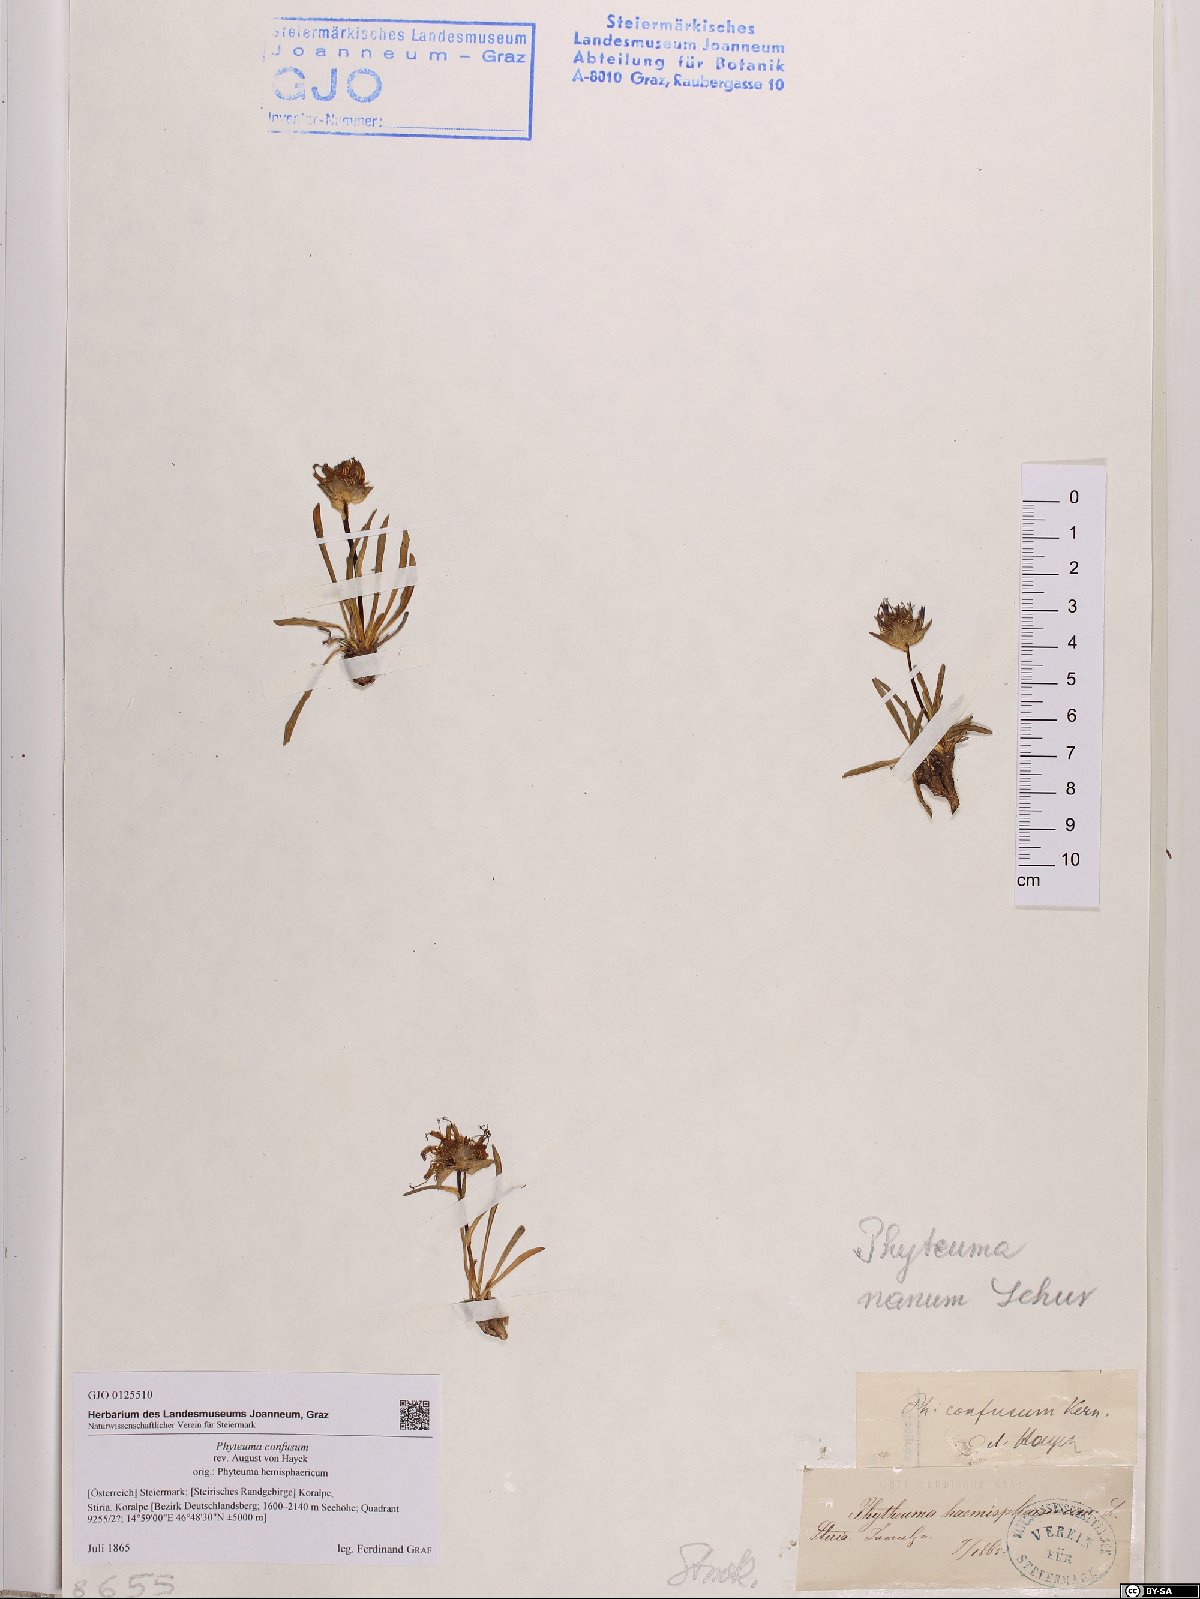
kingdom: Plantae
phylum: Tracheophyta
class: Magnoliopsida
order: Asterales
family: Campanulaceae
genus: Phyteuma
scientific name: Phyteuma confusum
